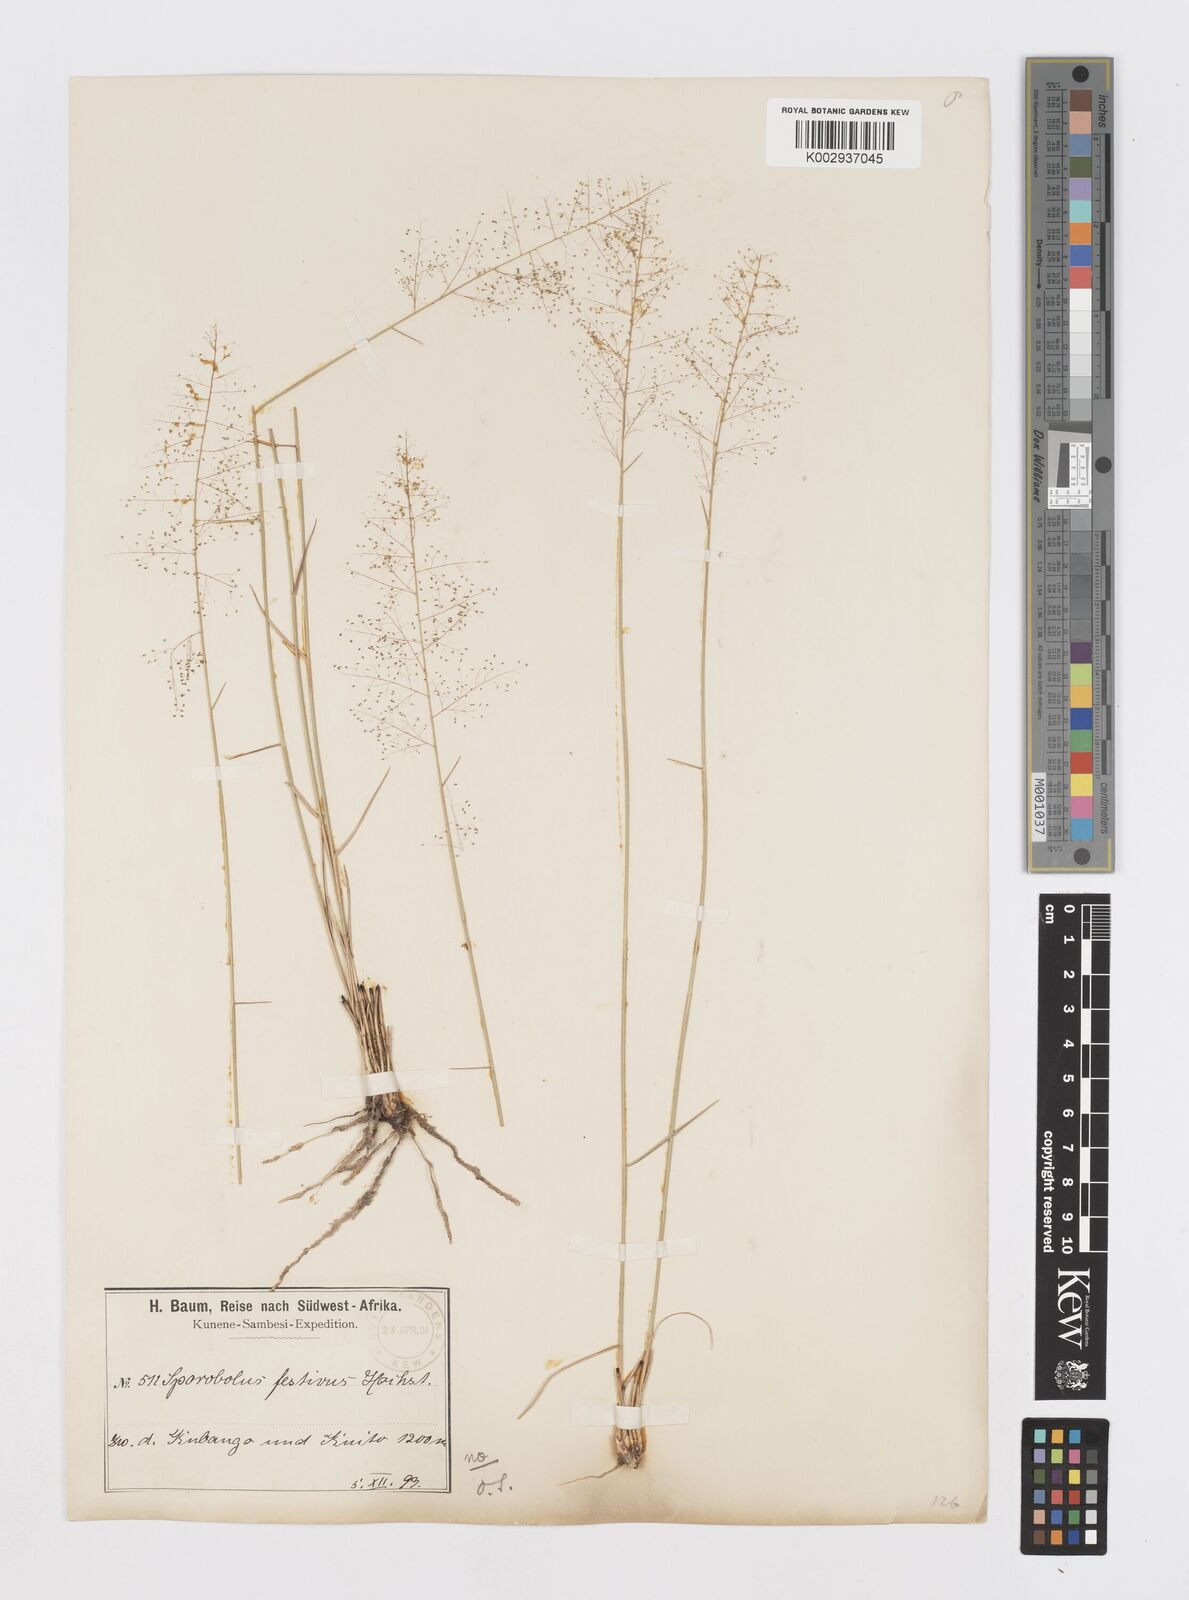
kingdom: Plantae
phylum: Tracheophyta
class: Liliopsida
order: Poales
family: Poaceae
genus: Sporobolus
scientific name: Sporobolus
